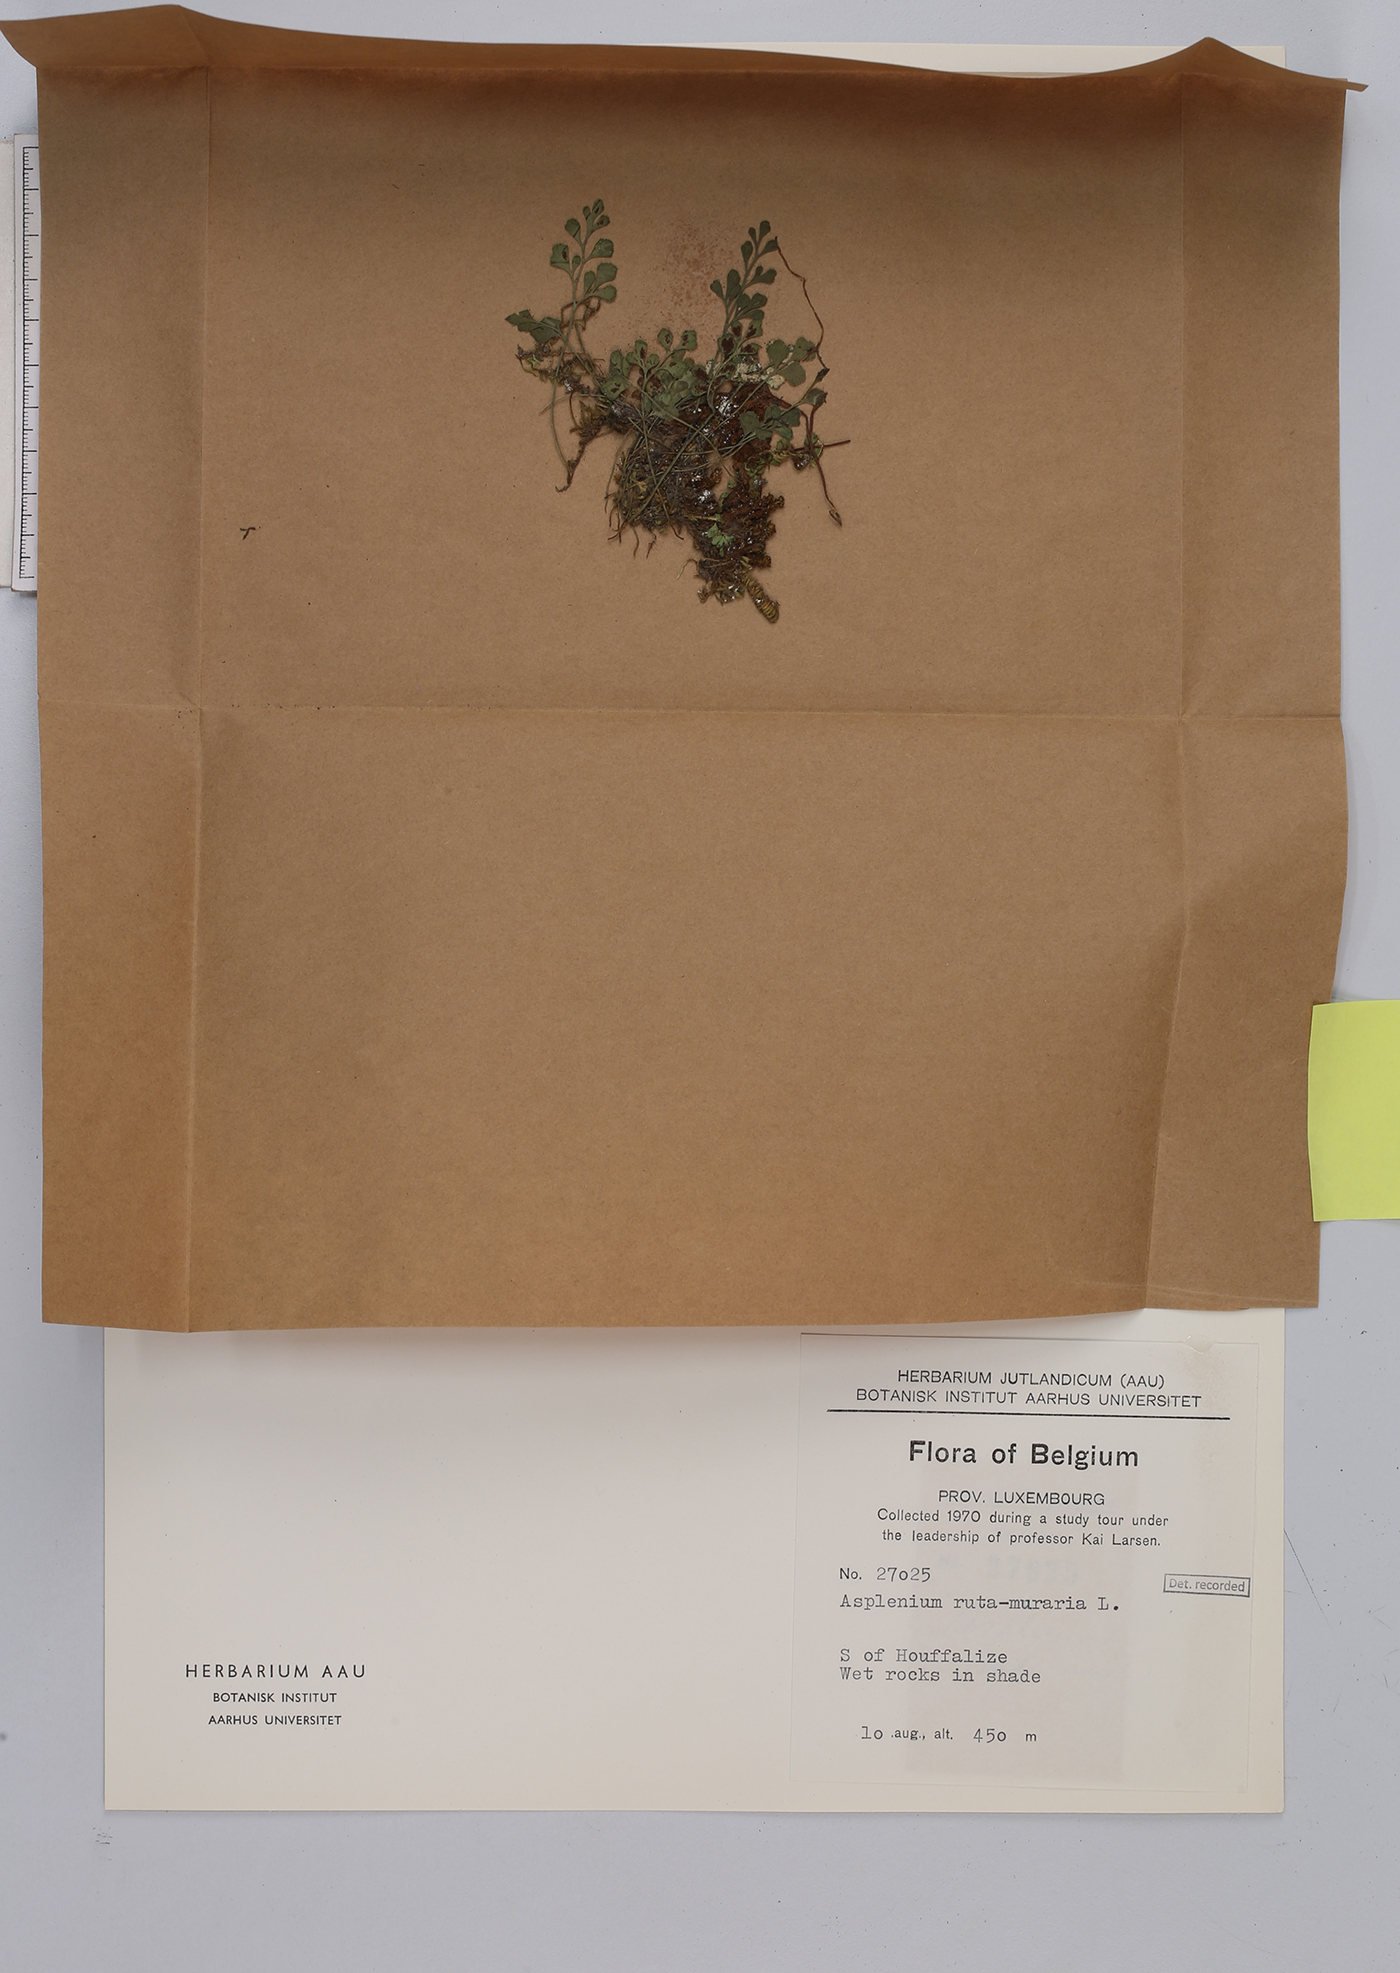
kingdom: Plantae
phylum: Tracheophyta
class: Polypodiopsida
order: Polypodiales
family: Aspleniaceae
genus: Asplenium
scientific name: Asplenium ruta-muraria
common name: Wall-rue
